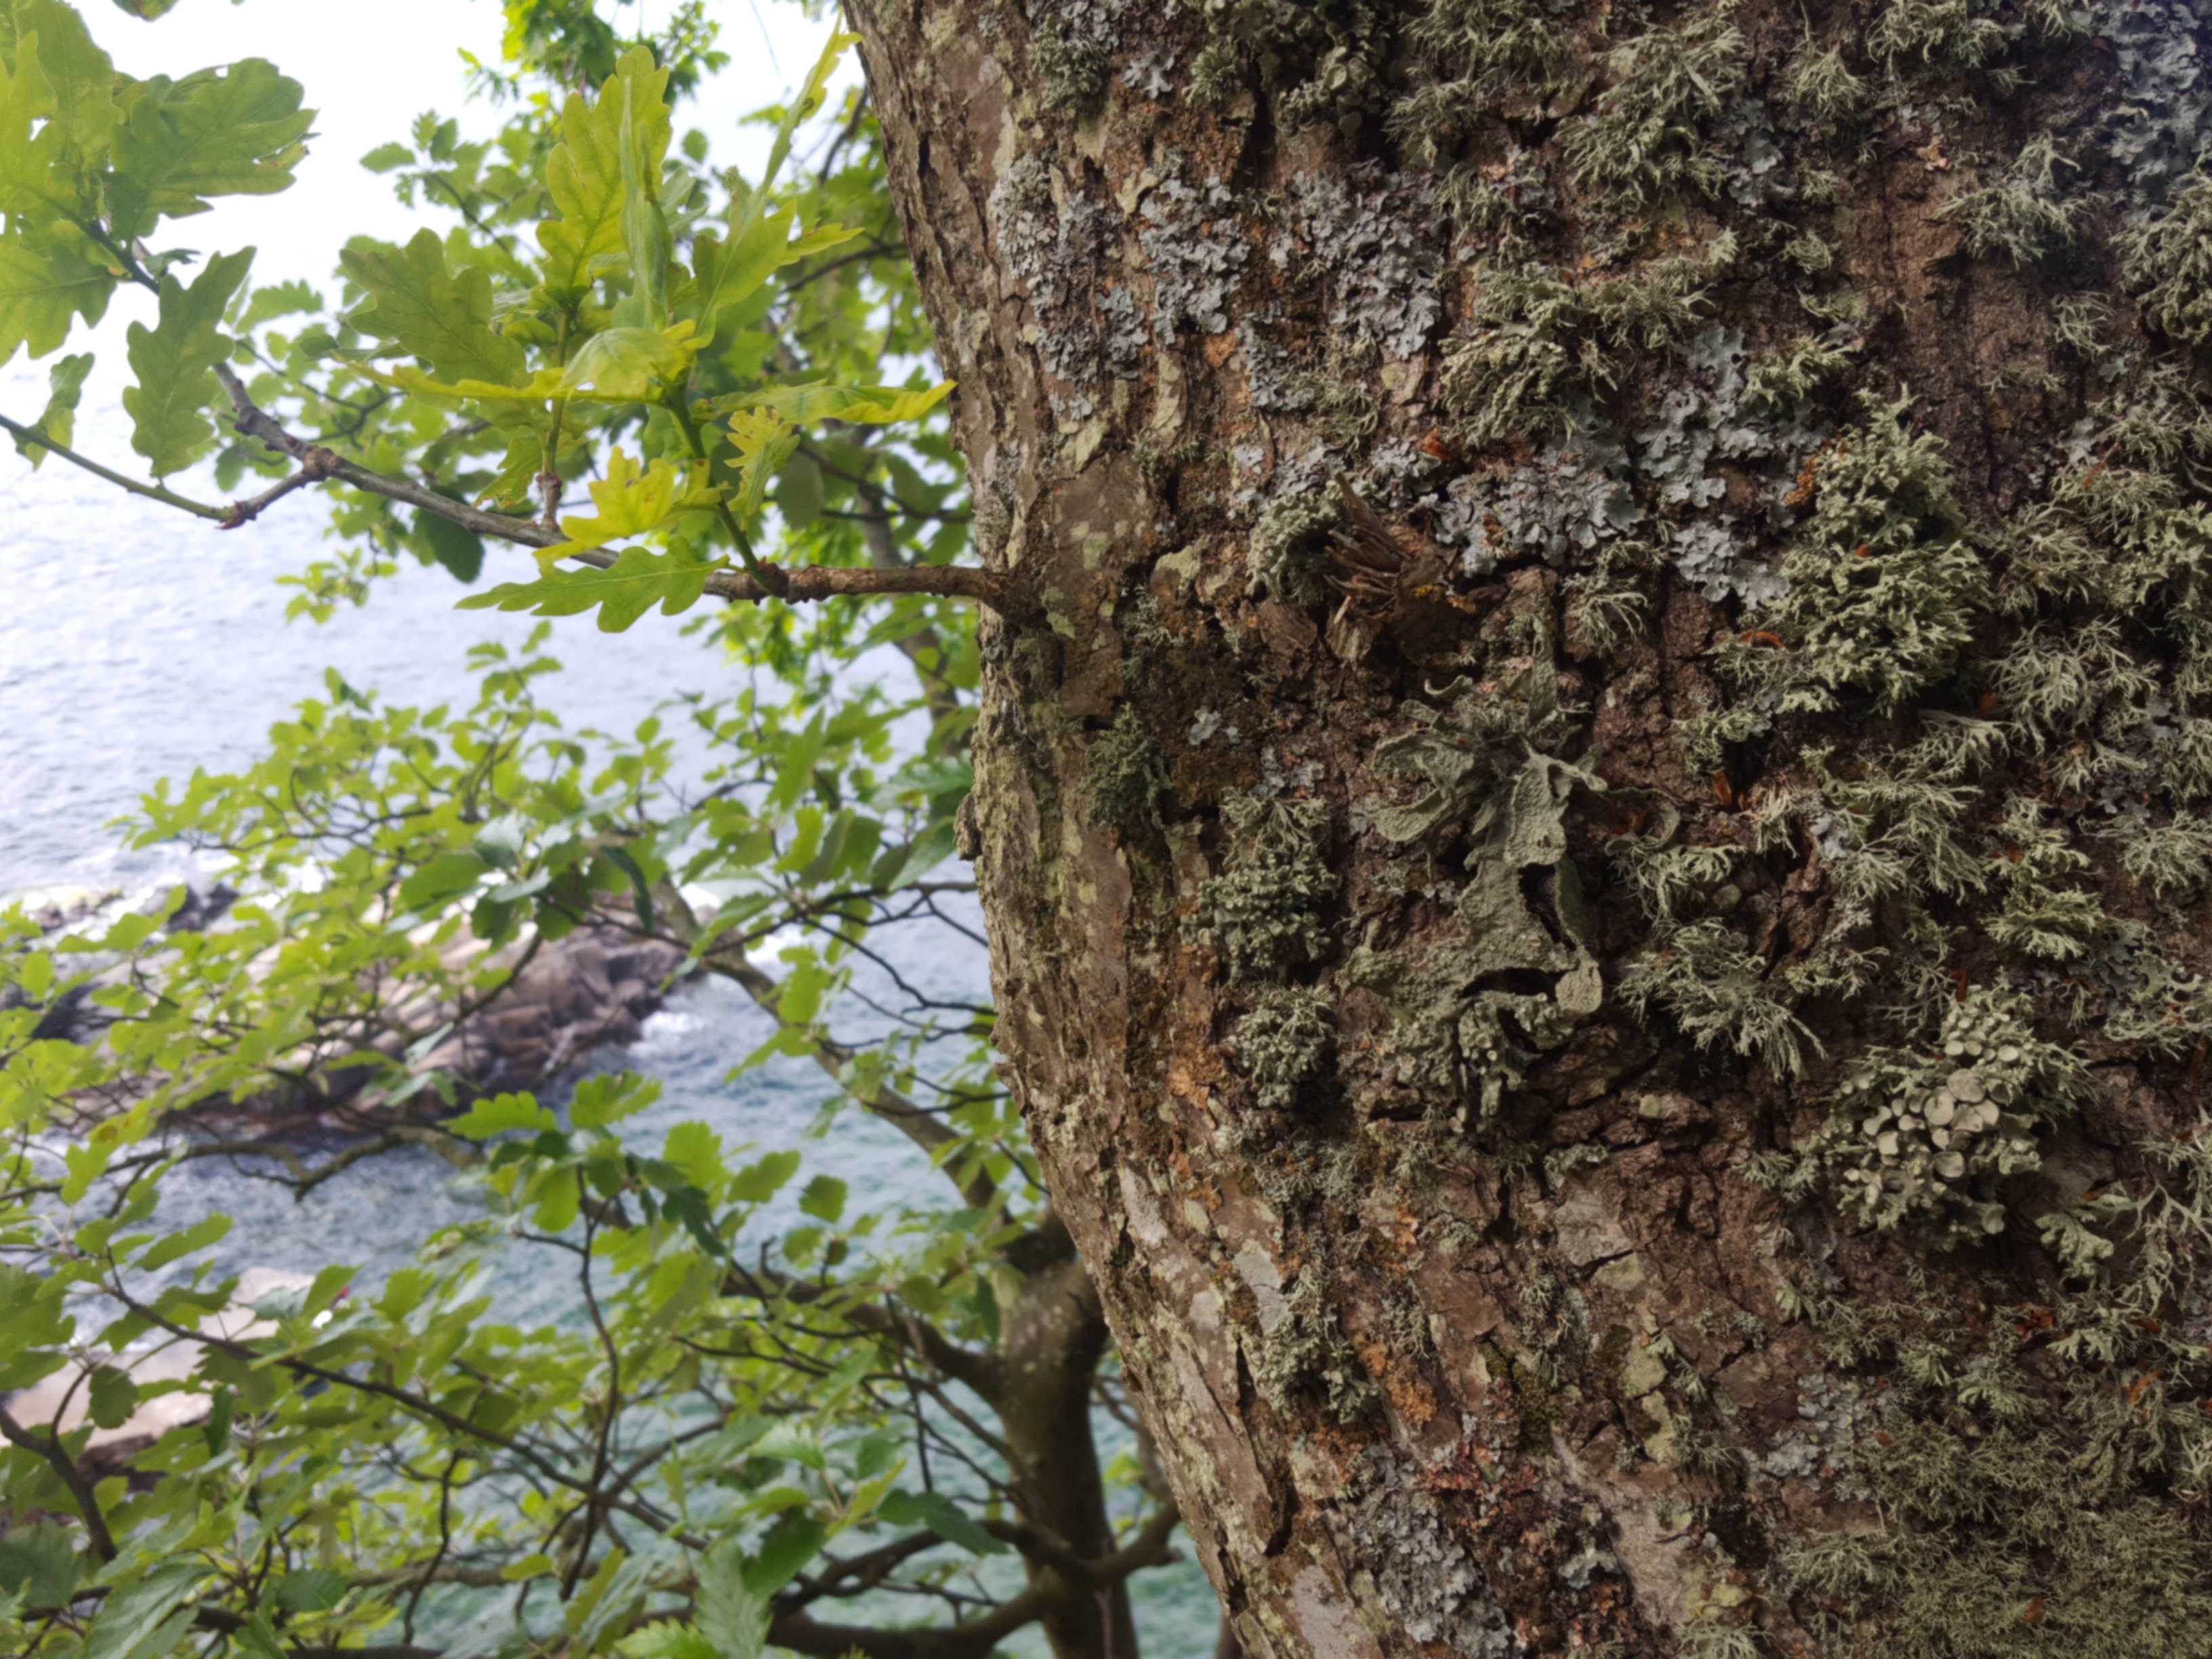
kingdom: Fungi
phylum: Ascomycota
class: Lecanoromycetes
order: Lecanorales
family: Ramalinaceae
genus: Ramalina
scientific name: Ramalina fraxinea
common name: stor grenlav
